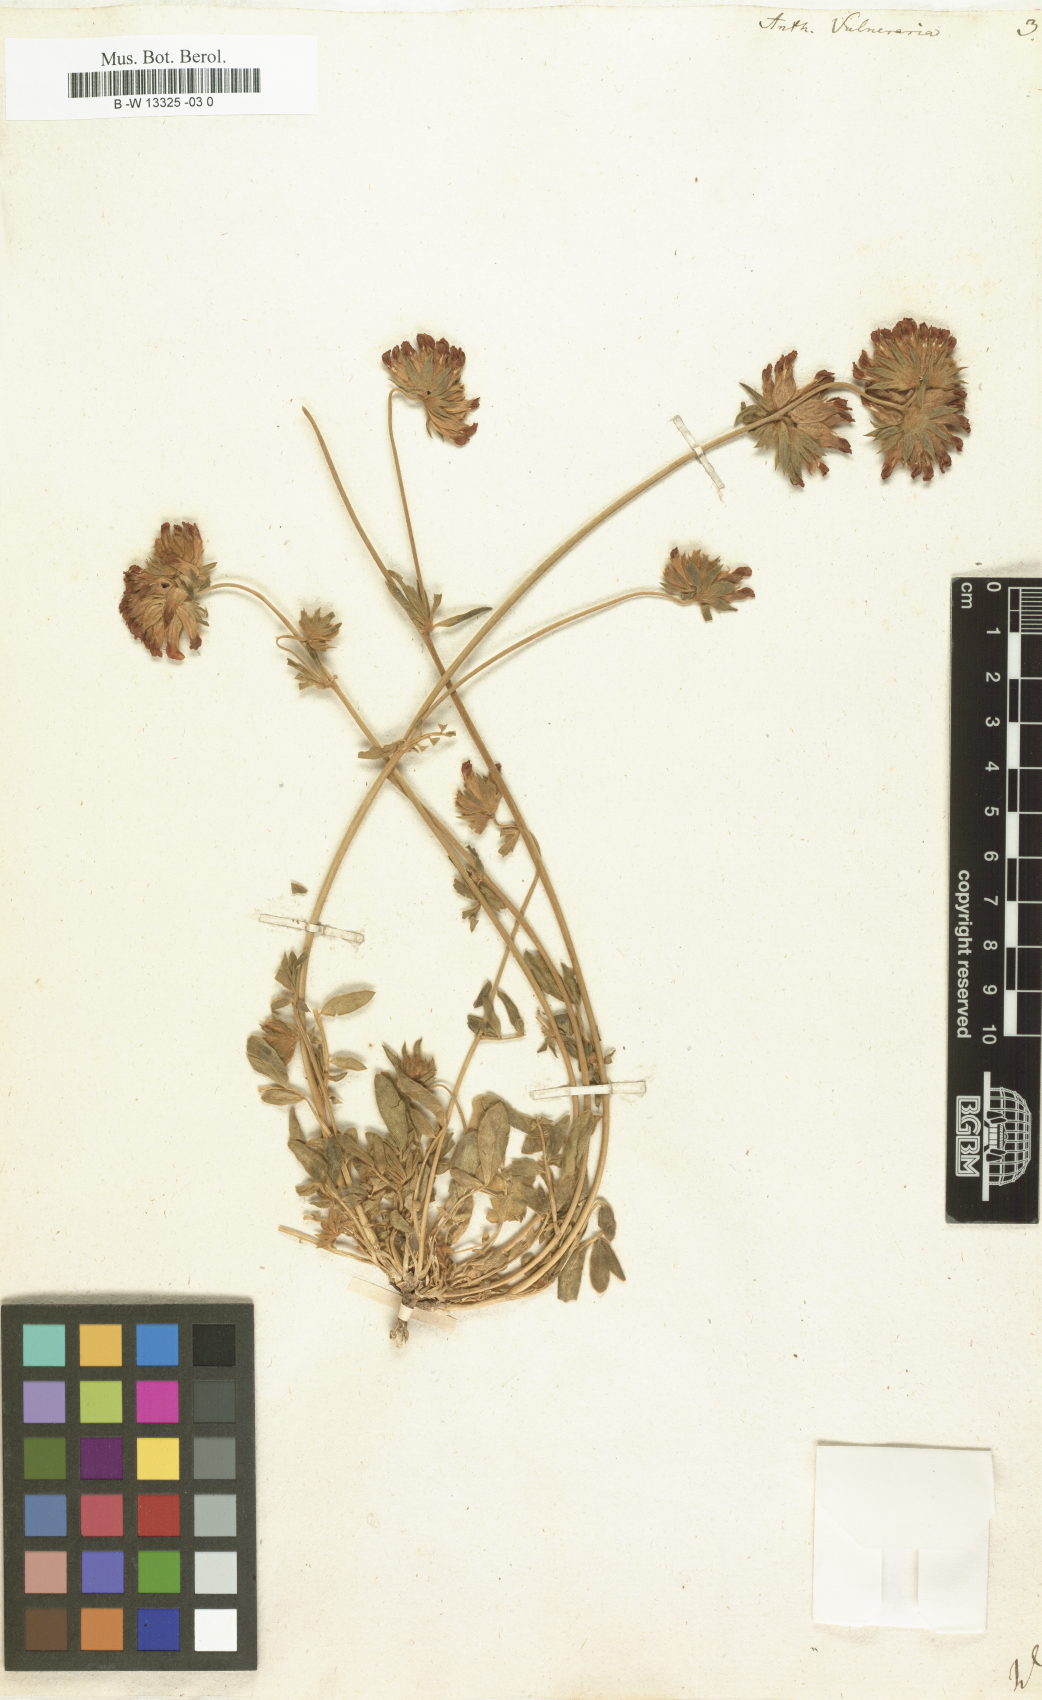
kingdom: Plantae
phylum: Tracheophyta
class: Magnoliopsida
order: Fabales
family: Fabaceae
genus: Anthyllis
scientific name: Anthyllis vulneraria
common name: Kidney vetch
